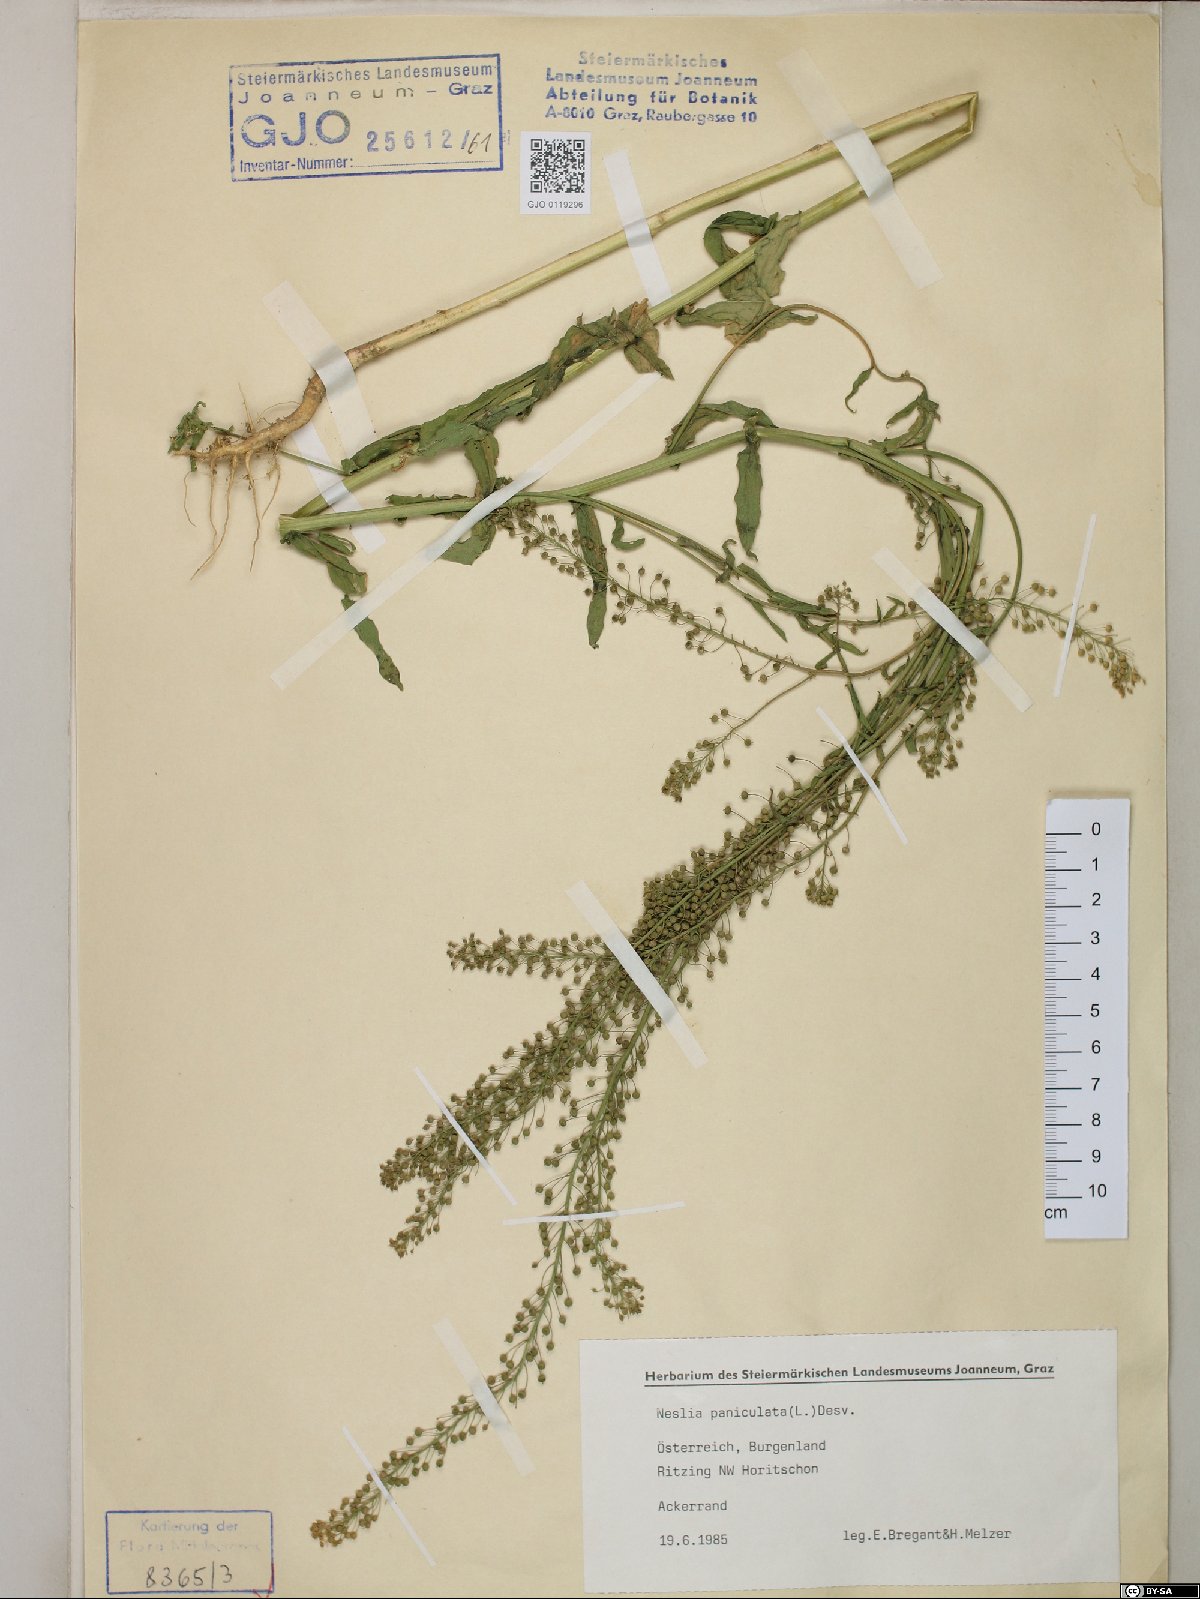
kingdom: Plantae
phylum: Tracheophyta
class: Magnoliopsida
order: Brassicales
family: Brassicaceae
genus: Neslia
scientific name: Neslia paniculata
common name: Ball mustard
